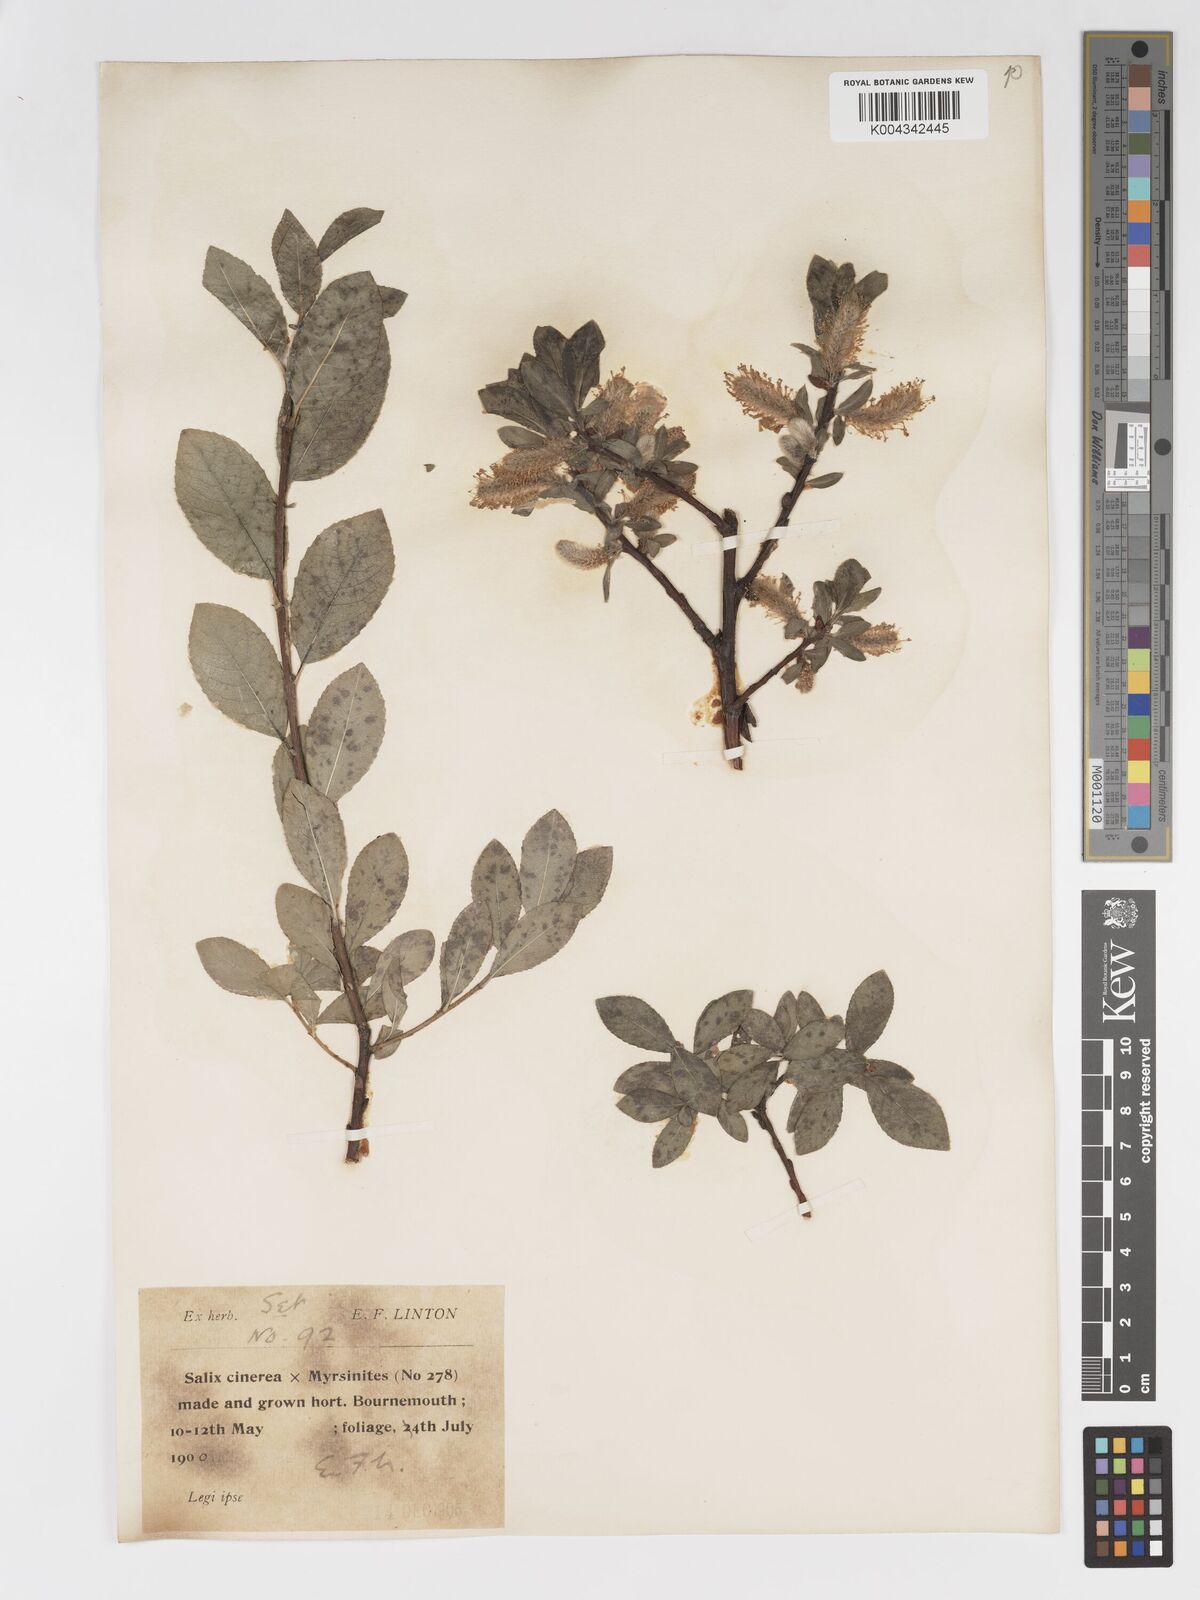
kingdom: Plantae
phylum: Tracheophyta
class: Magnoliopsida
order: Malpighiales
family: Salicaceae
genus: Salix
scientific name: Salix
